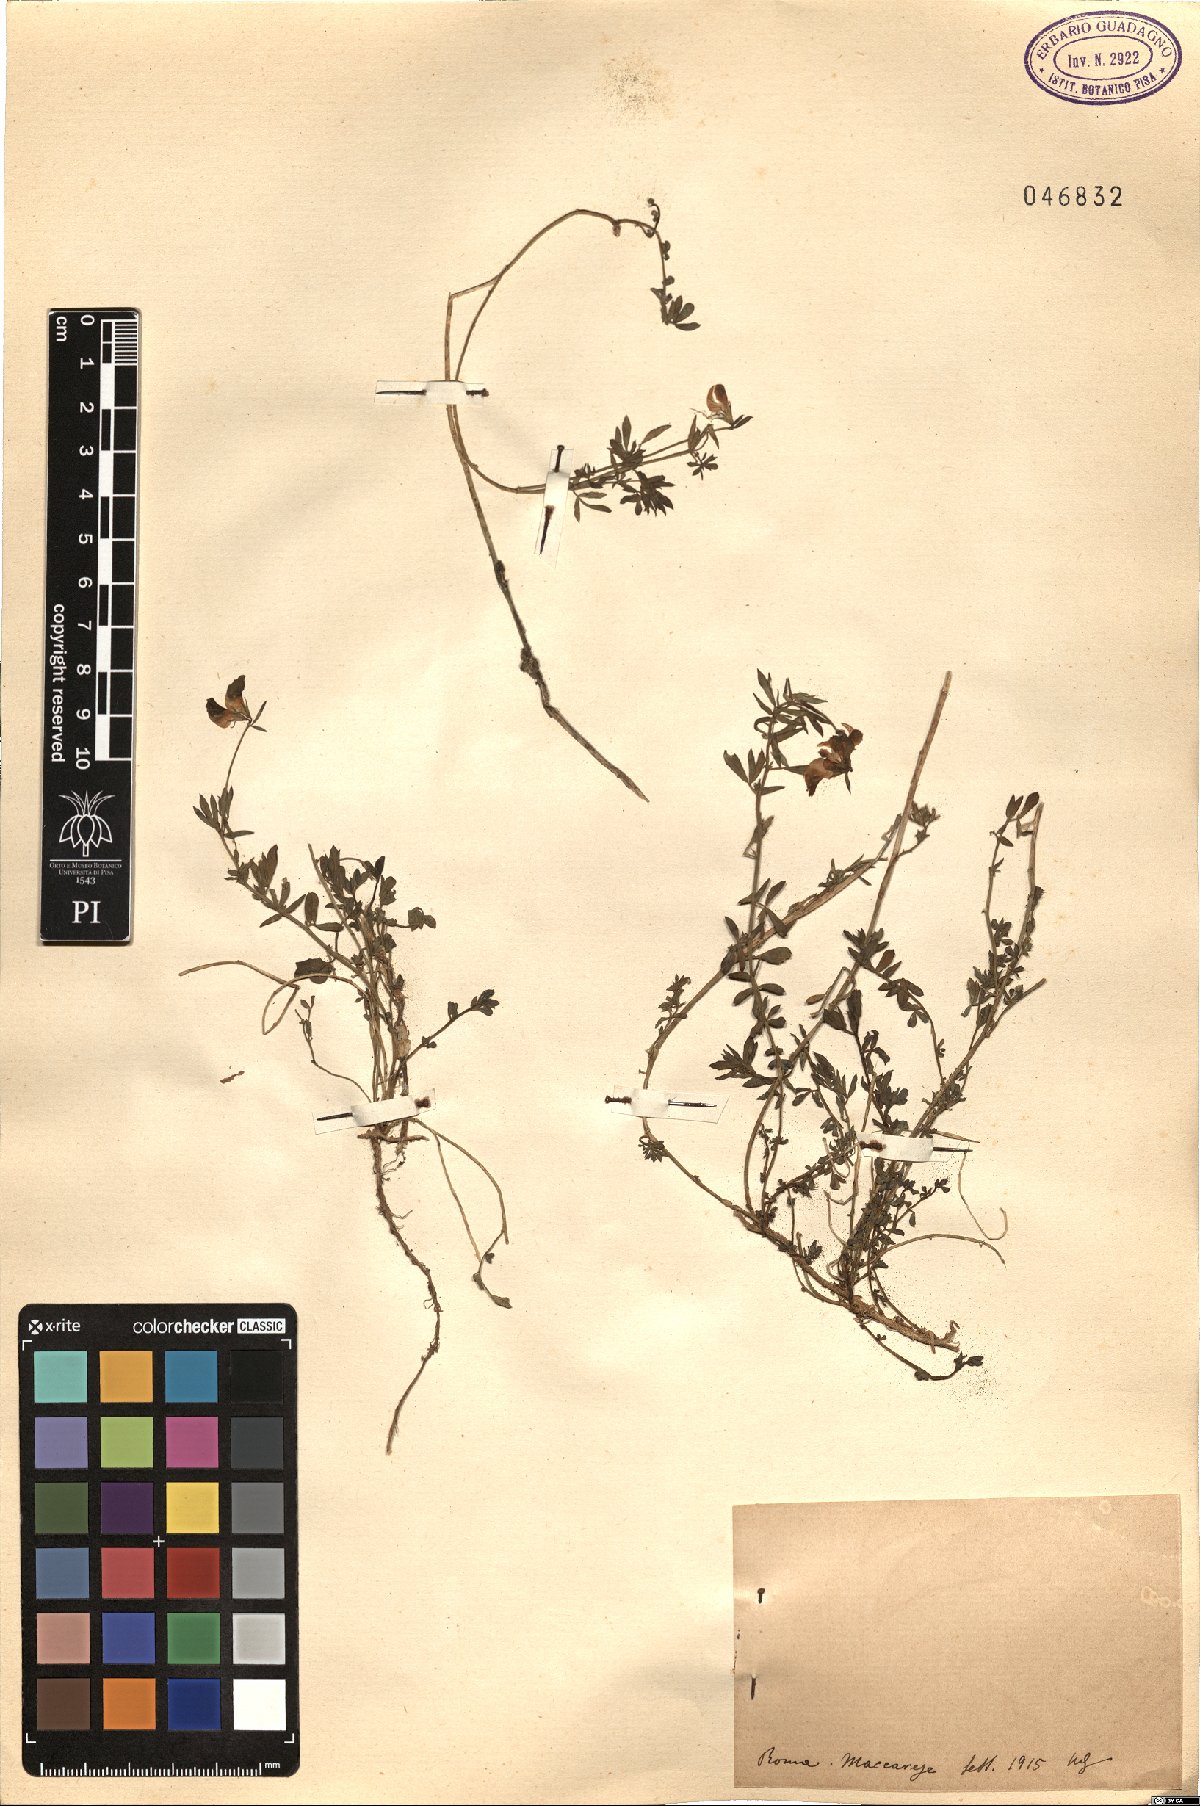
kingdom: Plantae
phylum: Tracheophyta
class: Magnoliopsida
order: Fabales
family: Fabaceae
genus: Lotus
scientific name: Lotus
